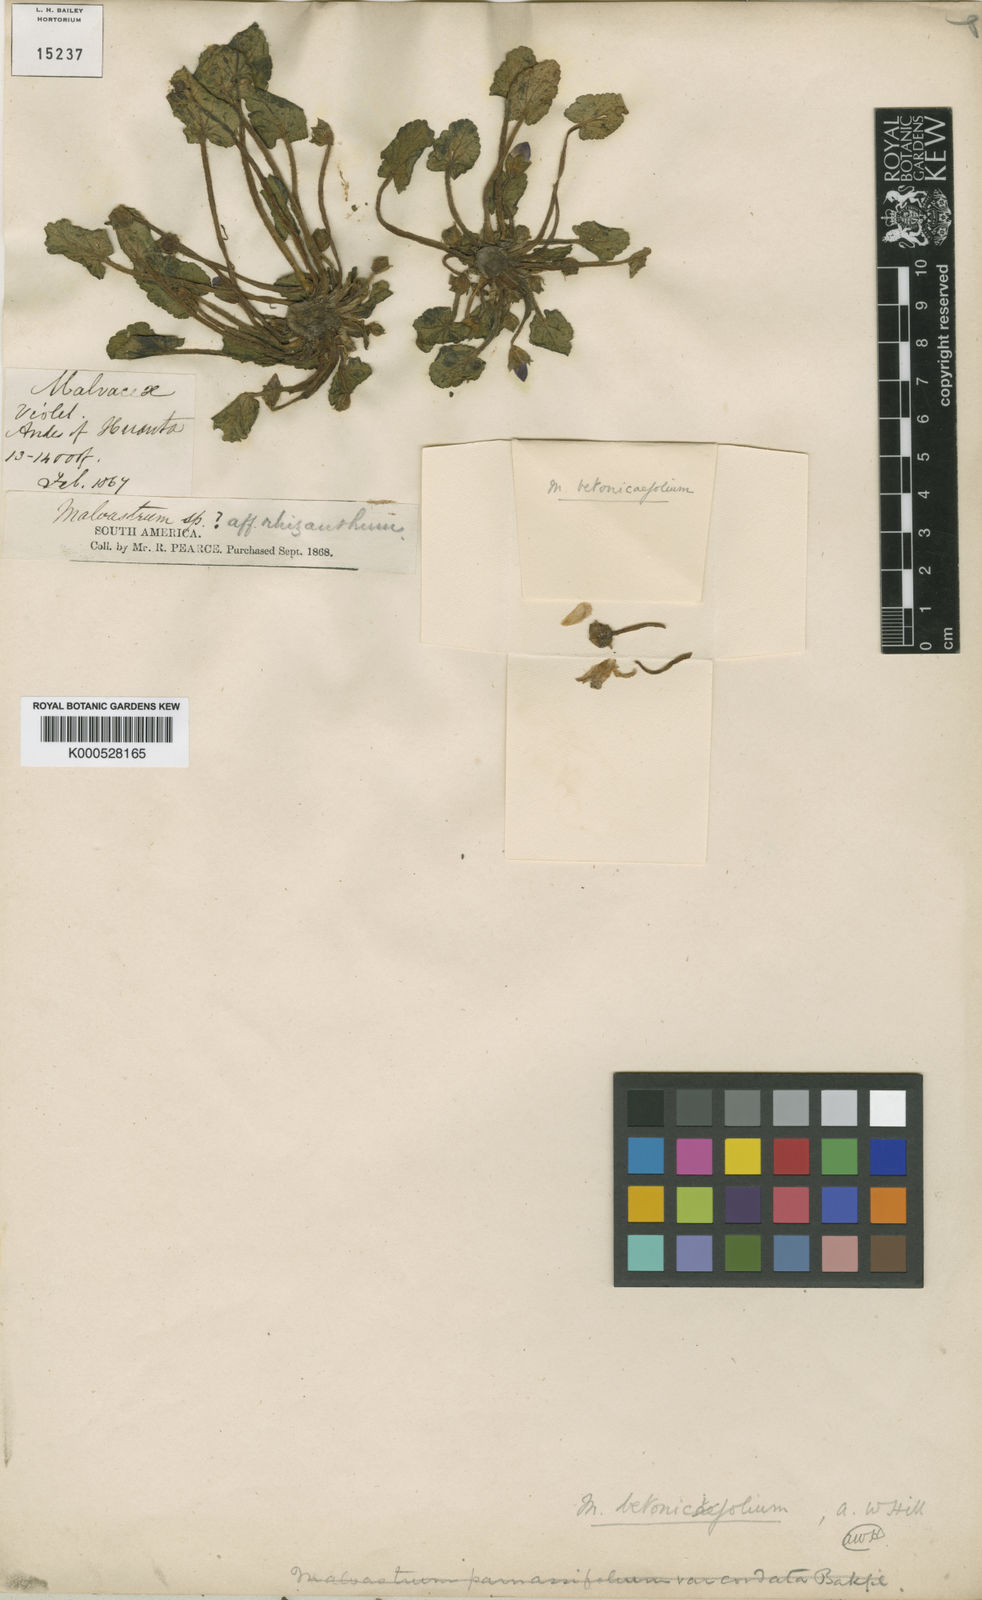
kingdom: Plantae
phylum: Tracheophyta
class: Magnoliopsida
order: Malvales
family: Malvaceae
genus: Acaulimalva
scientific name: Acaulimalva betonicifolia
